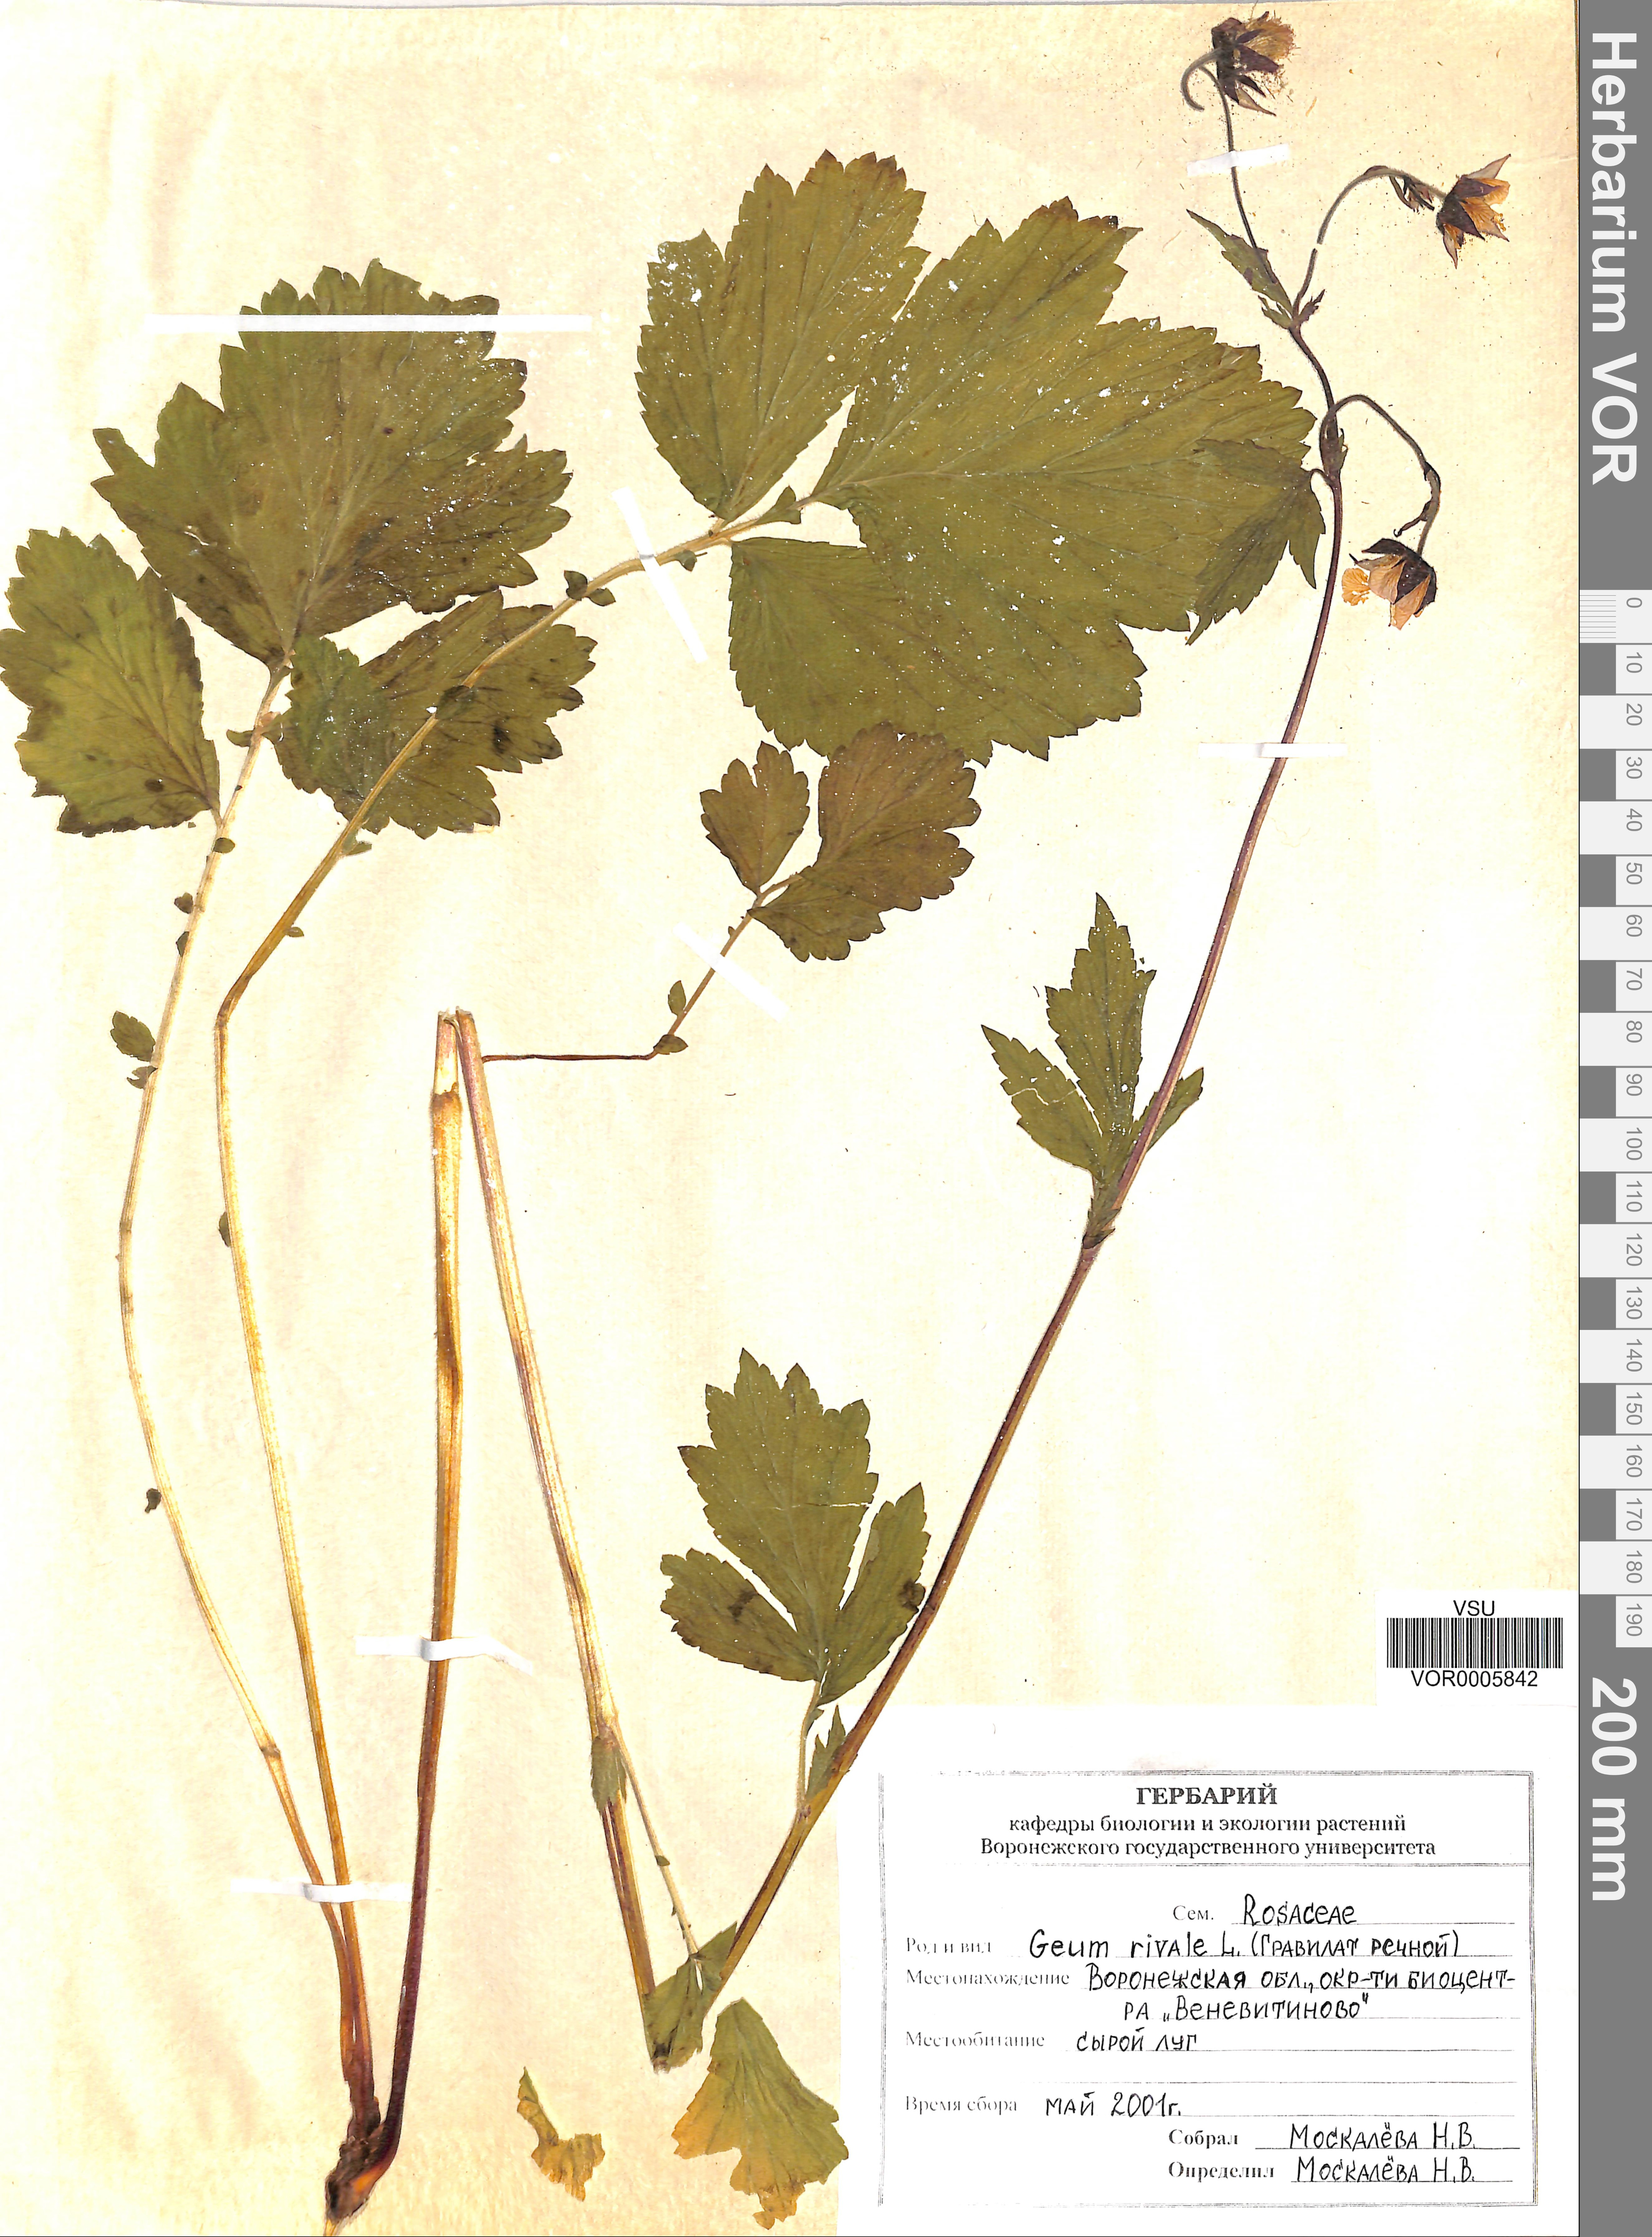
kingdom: Plantae
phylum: Tracheophyta
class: Magnoliopsida
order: Rosales
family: Rosaceae
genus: Geum
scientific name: Geum rivale
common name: Water avens
